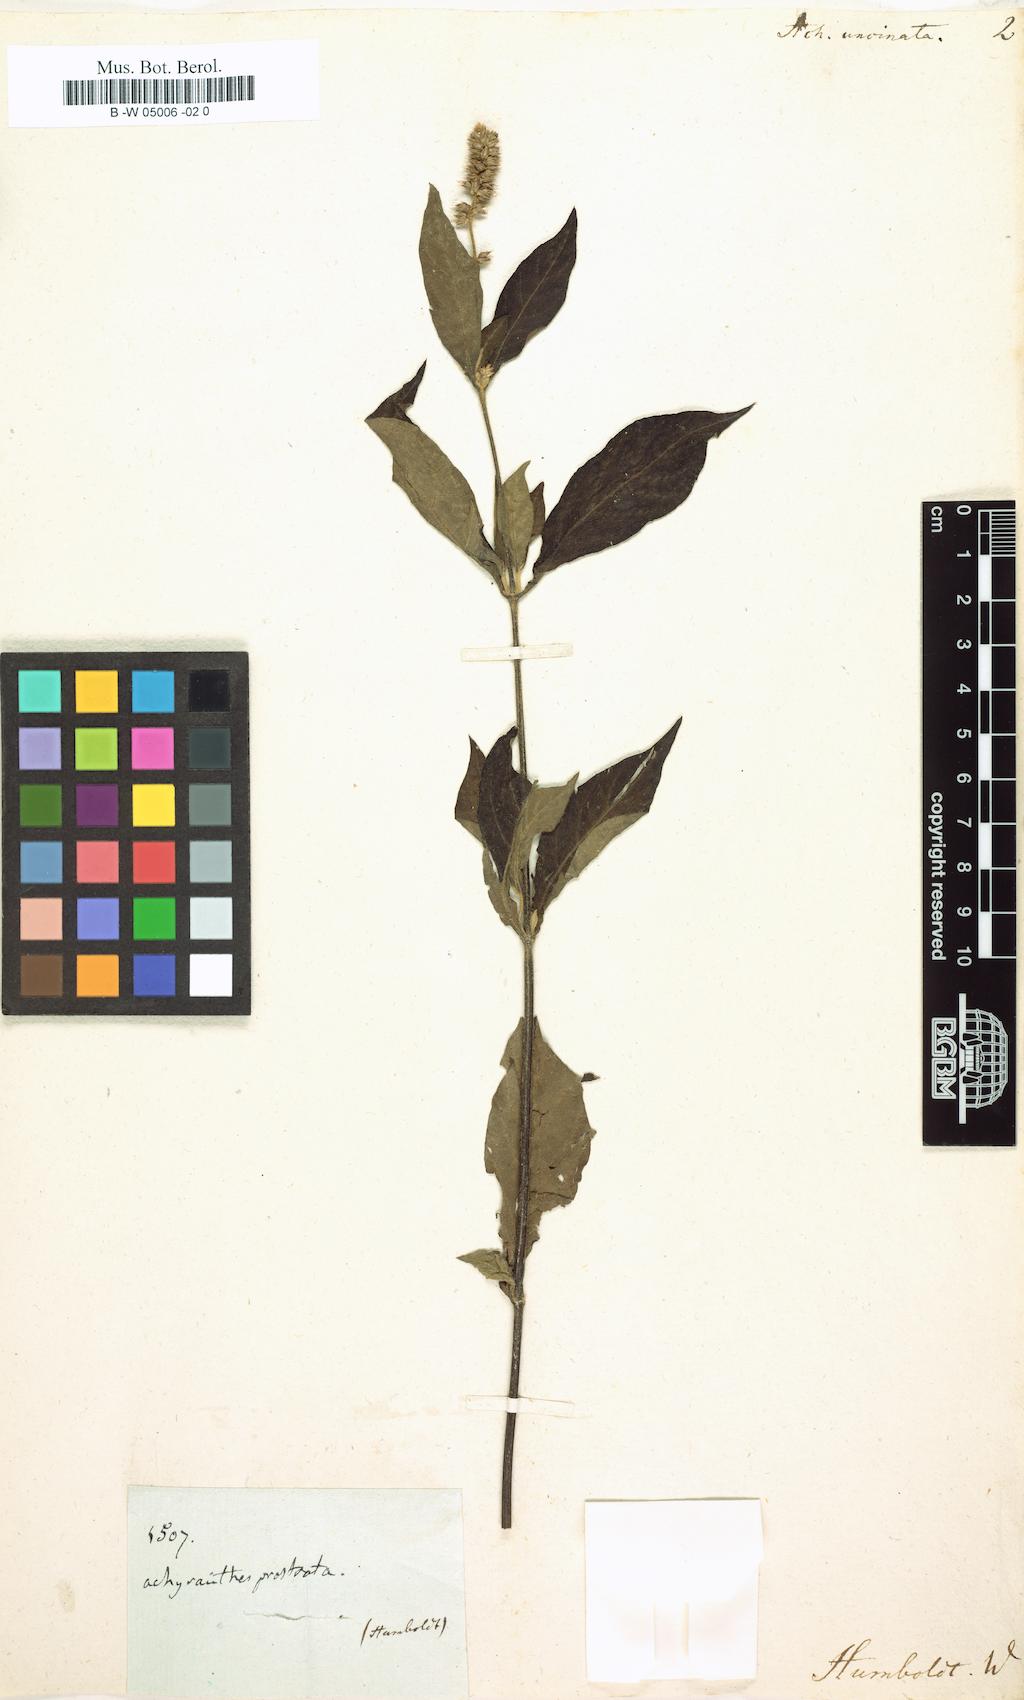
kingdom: Plantae
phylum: Tracheophyta
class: Magnoliopsida
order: Caryophyllales
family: Amaranthaceae
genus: Cyathula
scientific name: Cyathula achyranthoides
